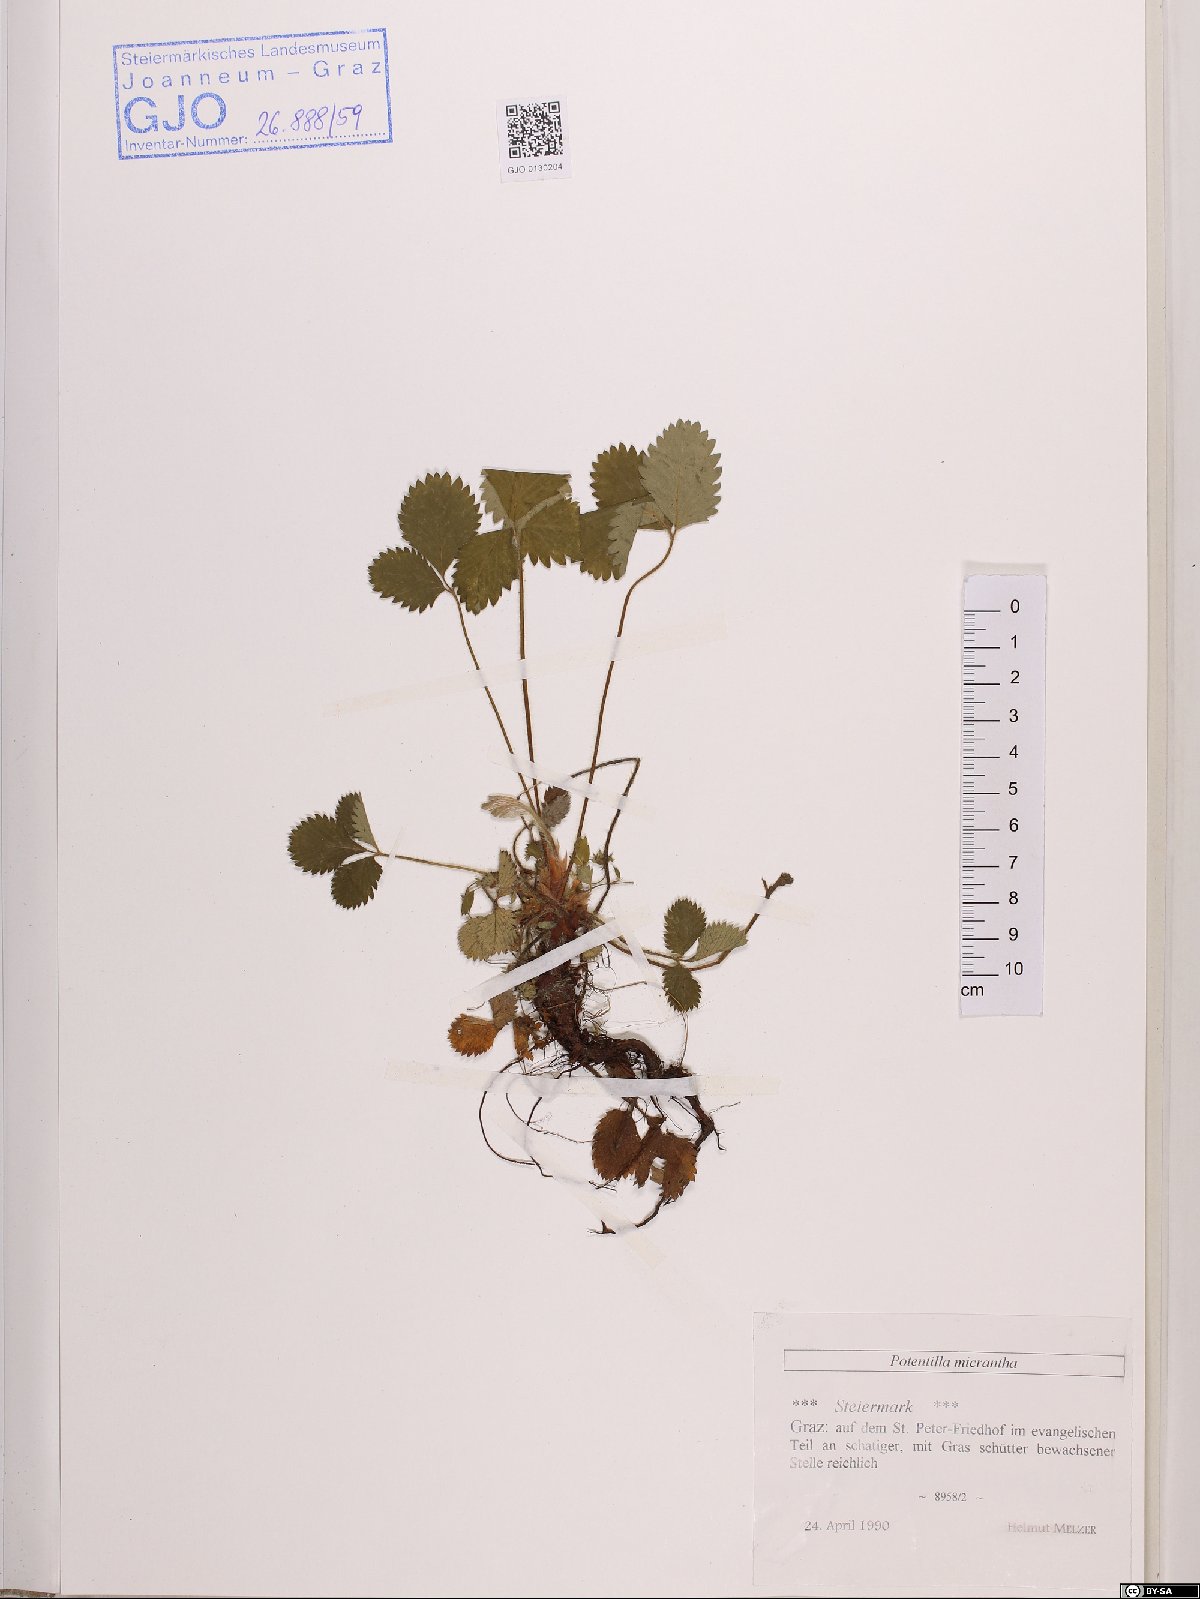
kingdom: Plantae
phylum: Tracheophyta
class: Magnoliopsida
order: Rosales
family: Rosaceae
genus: Potentilla
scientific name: Potentilla micrantha
